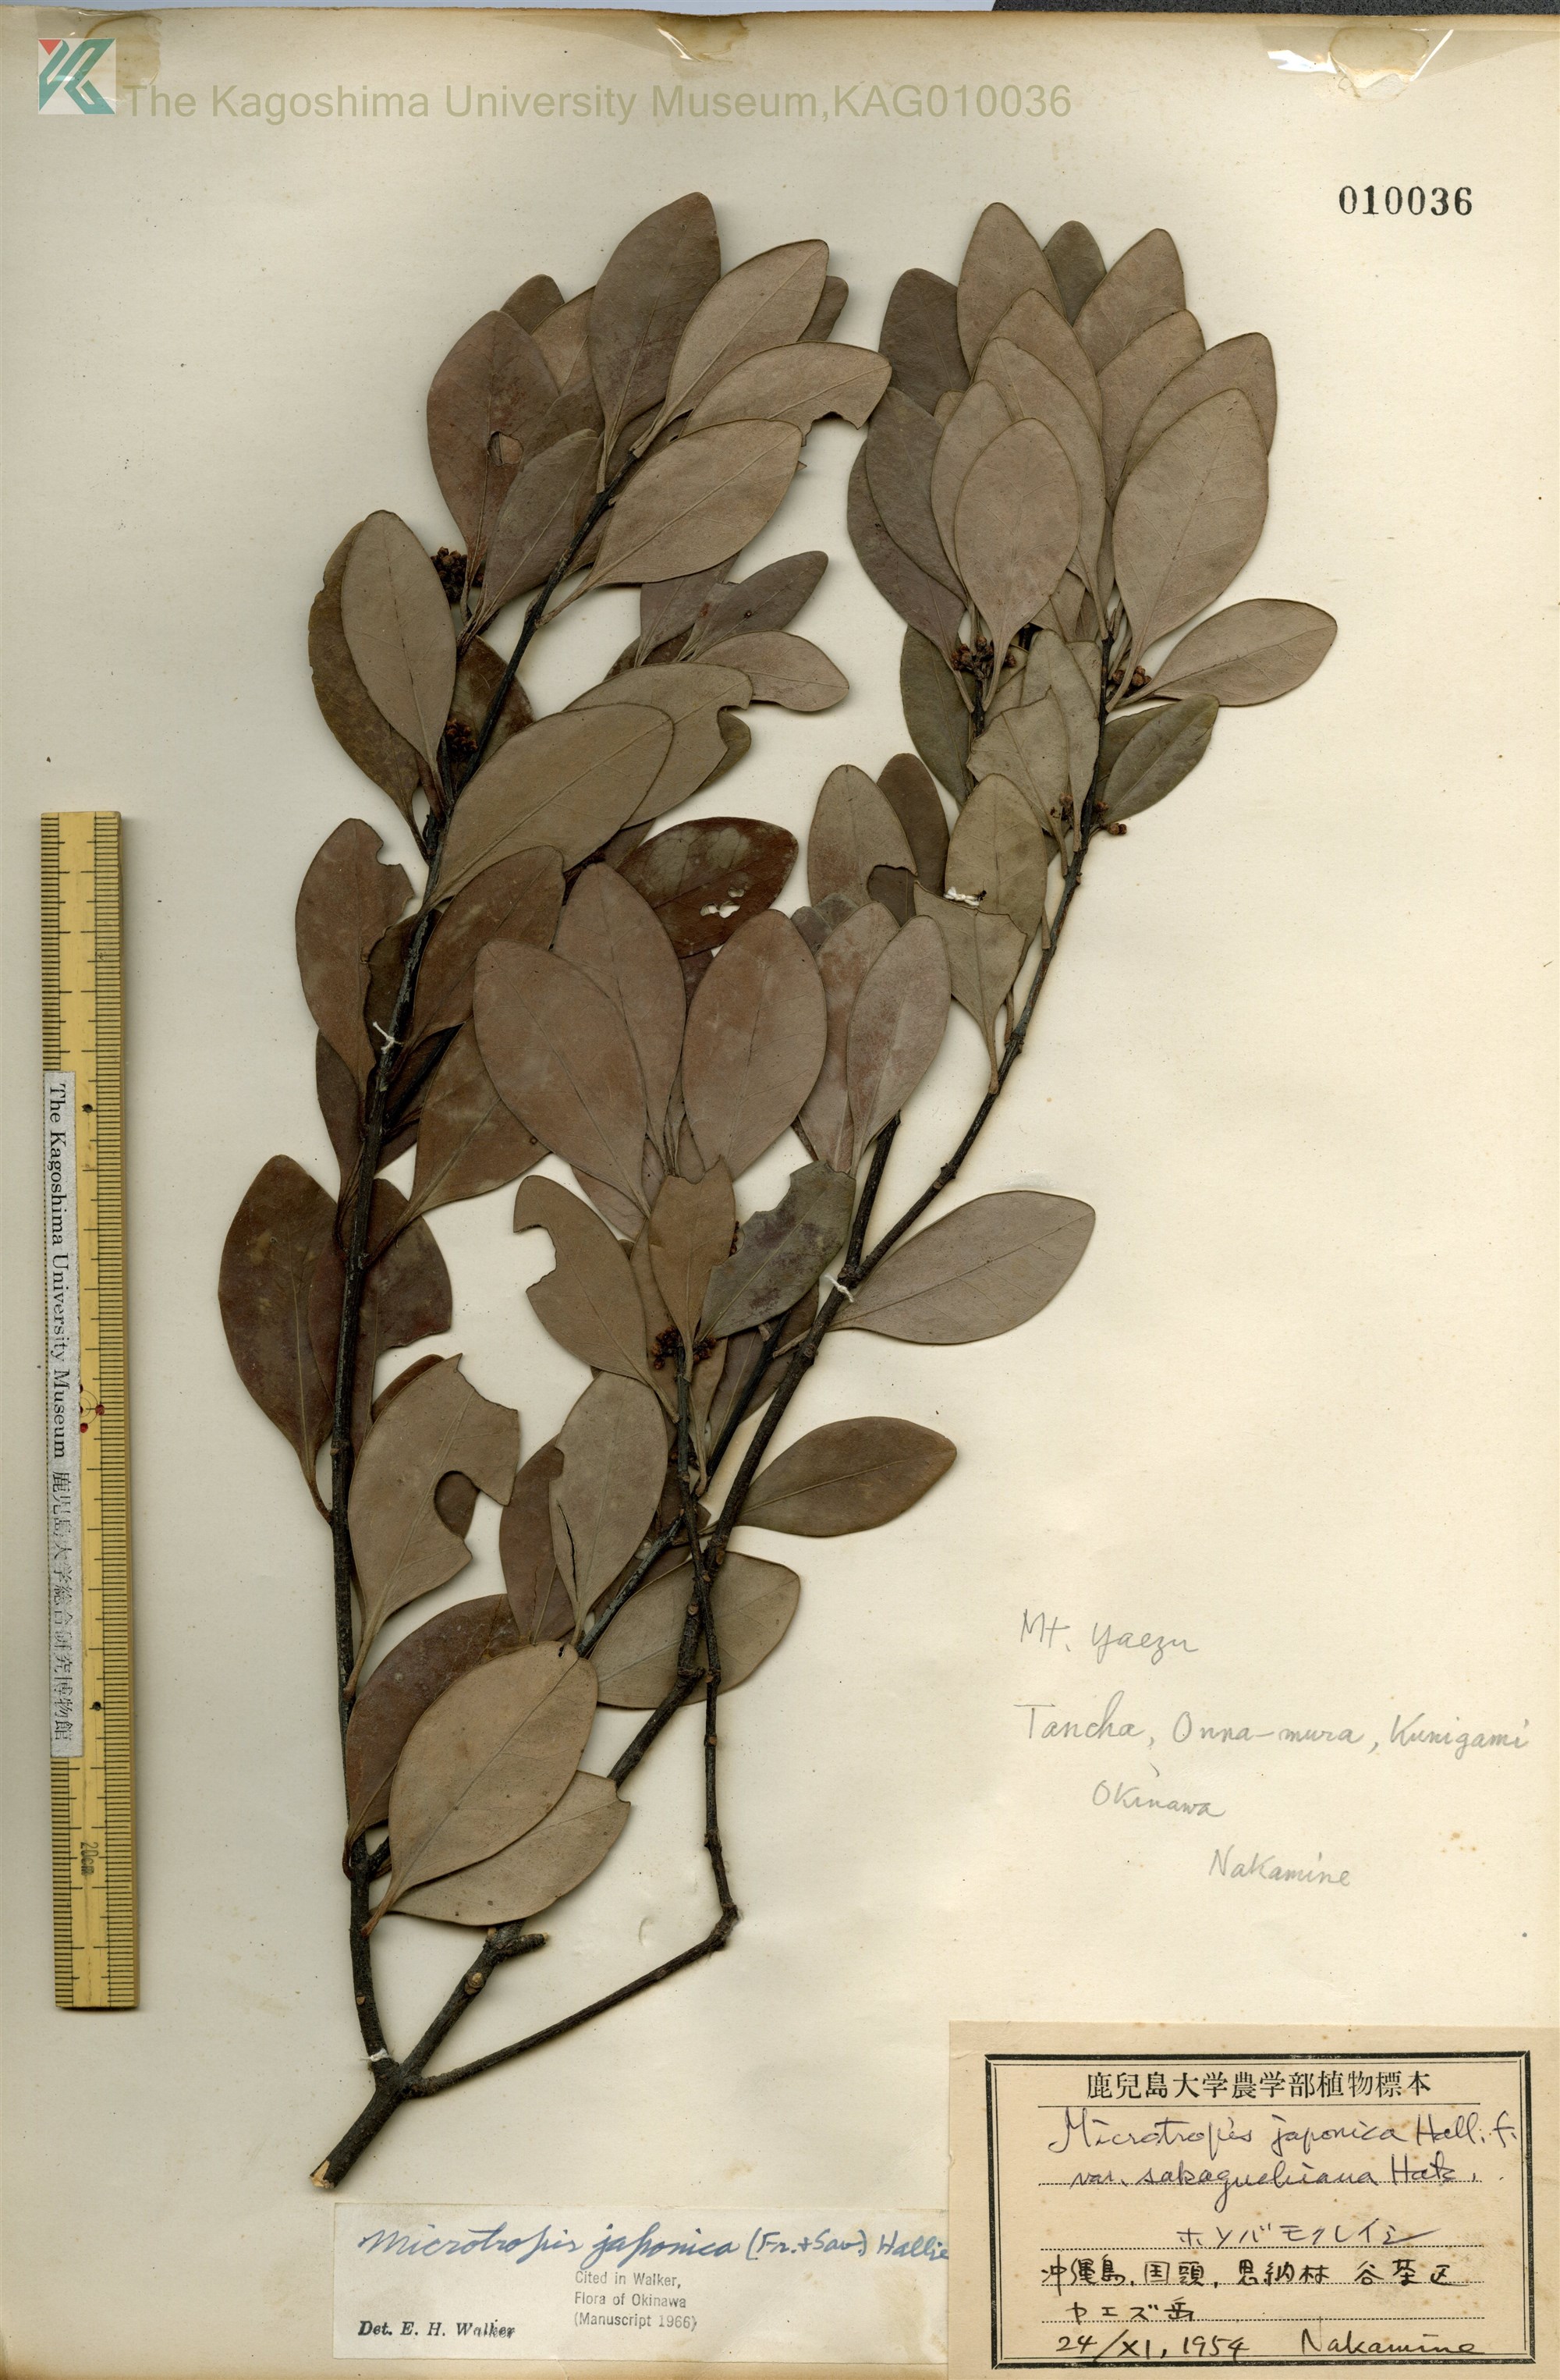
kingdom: Plantae
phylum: Tracheophyta
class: Magnoliopsida
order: Celastrales
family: Celastraceae
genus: Microtropis
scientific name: Microtropis japonica
